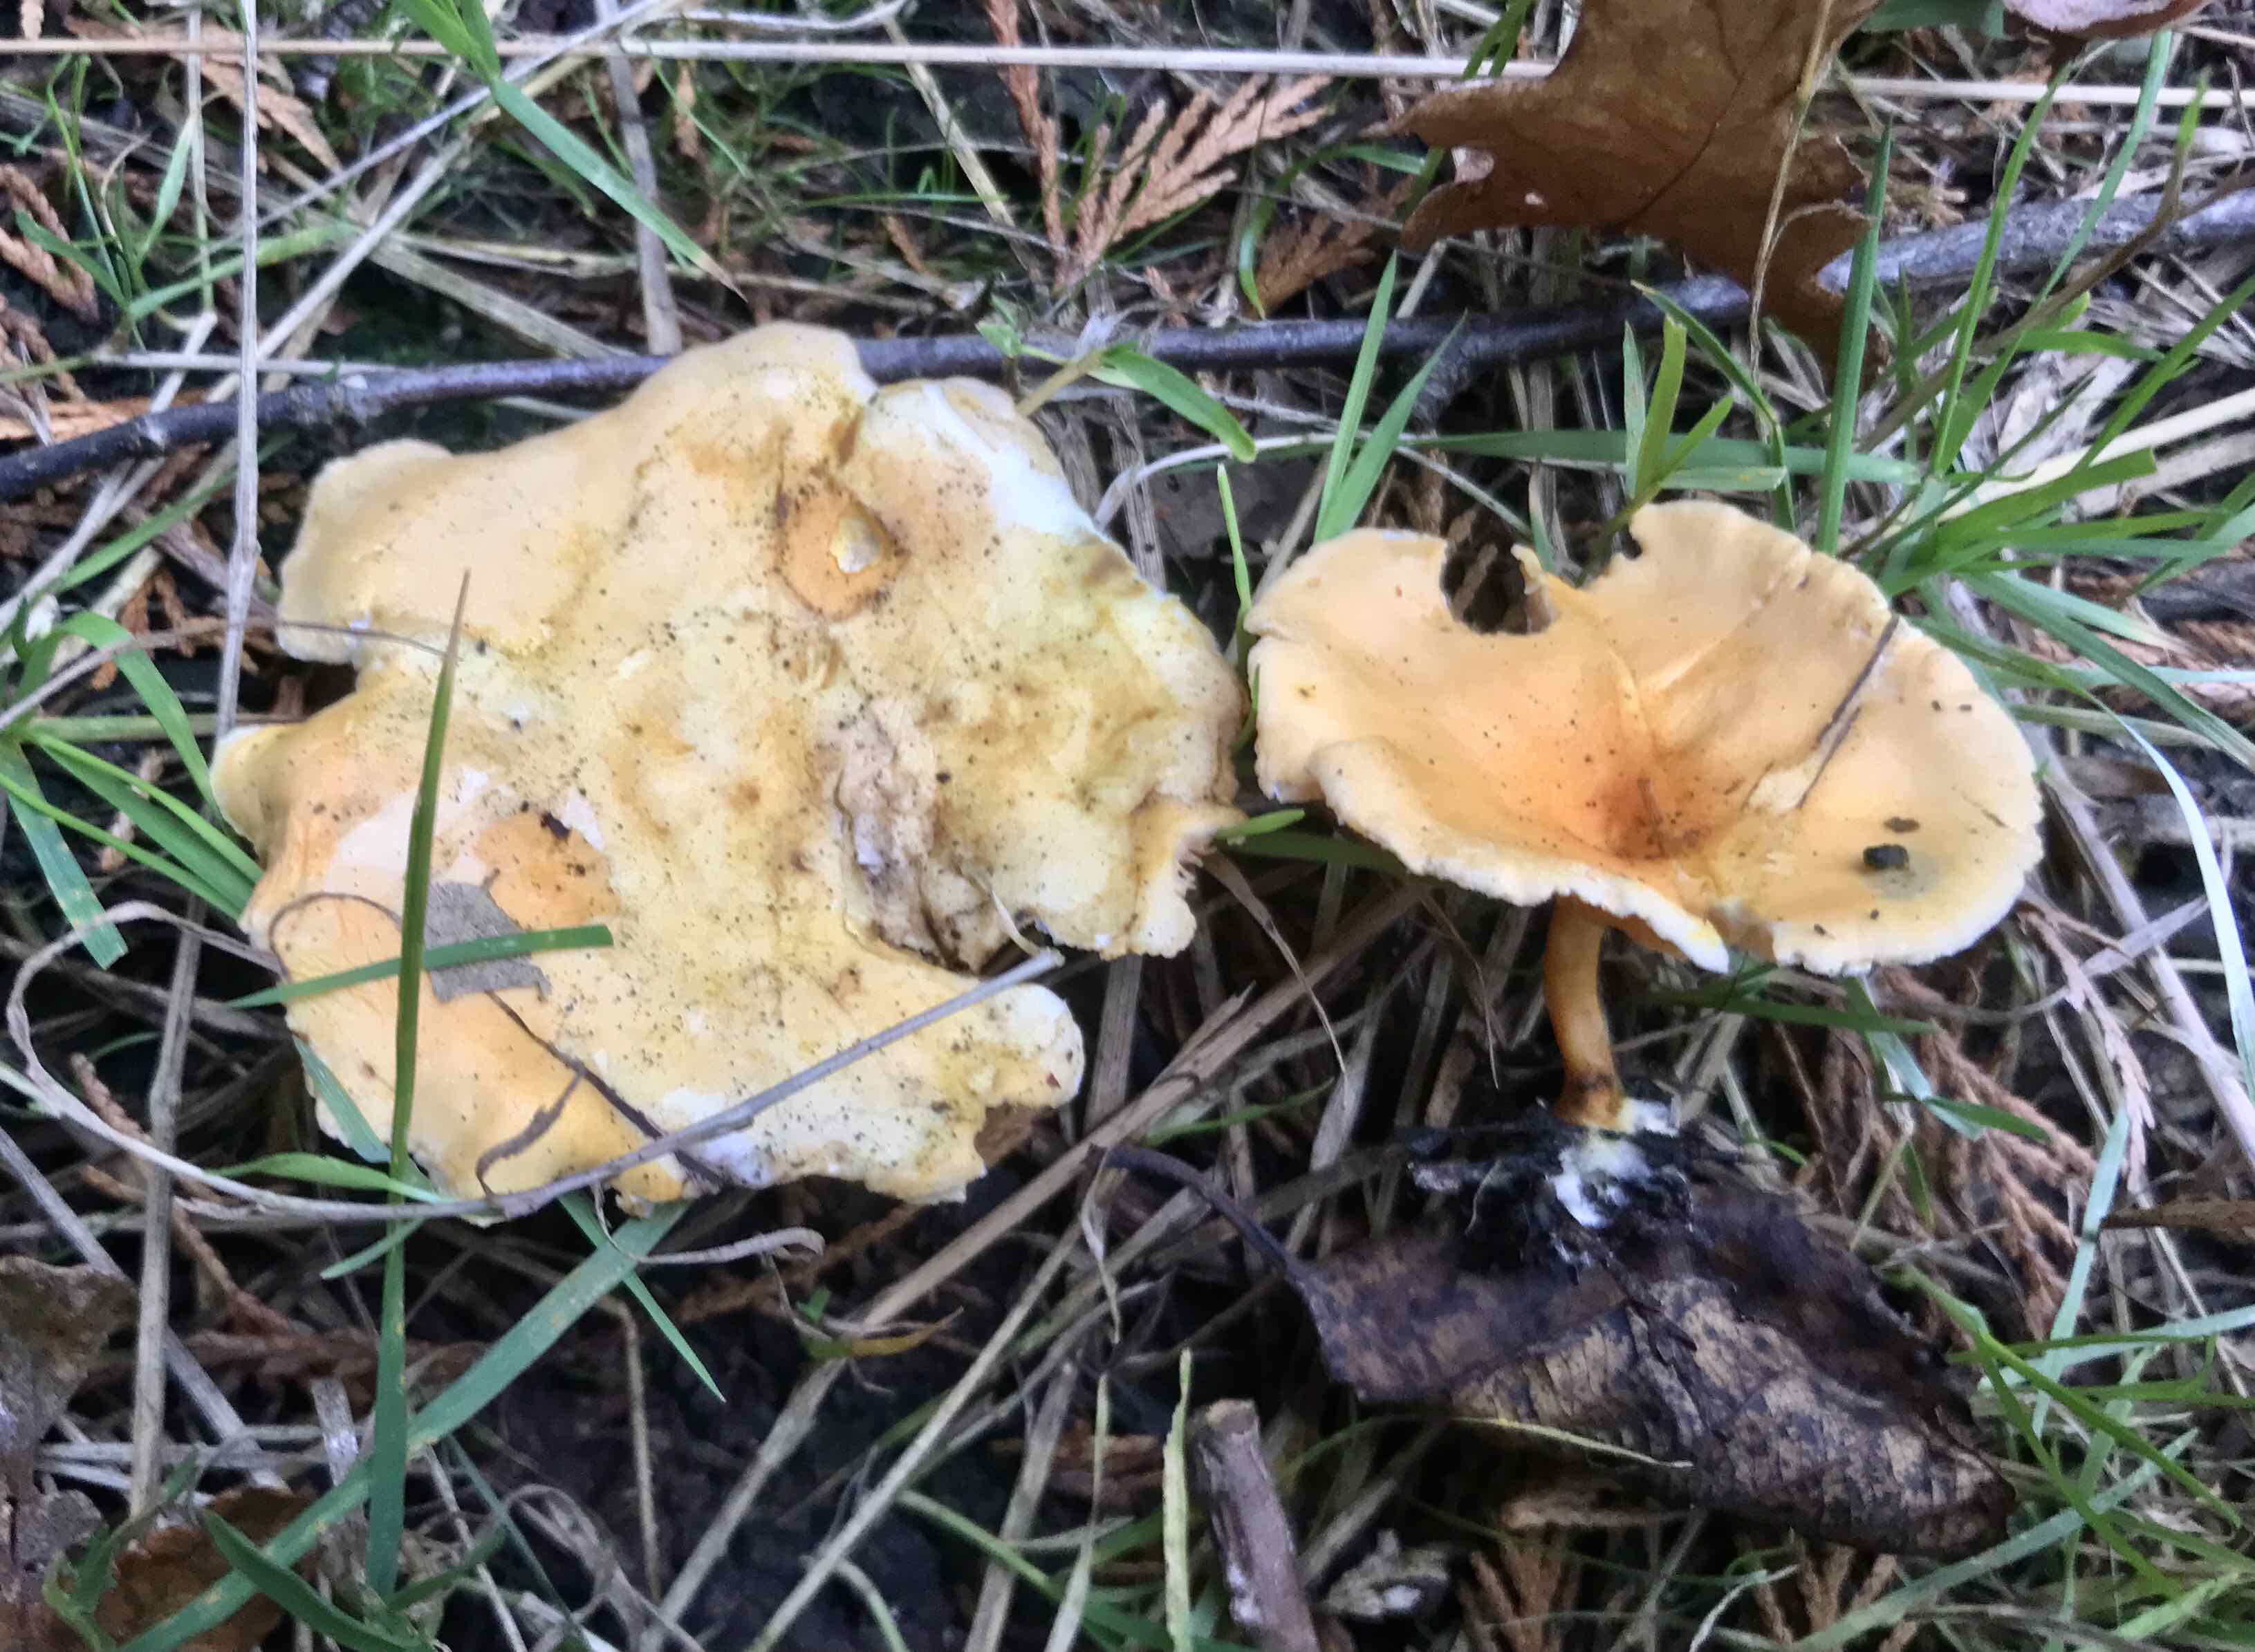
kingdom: Fungi
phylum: Basidiomycota
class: Agaricomycetes
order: Boletales
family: Hygrophoropsidaceae
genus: Hygrophoropsis
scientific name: Hygrophoropsis aurantiaca
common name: almindelig orangekantarel
